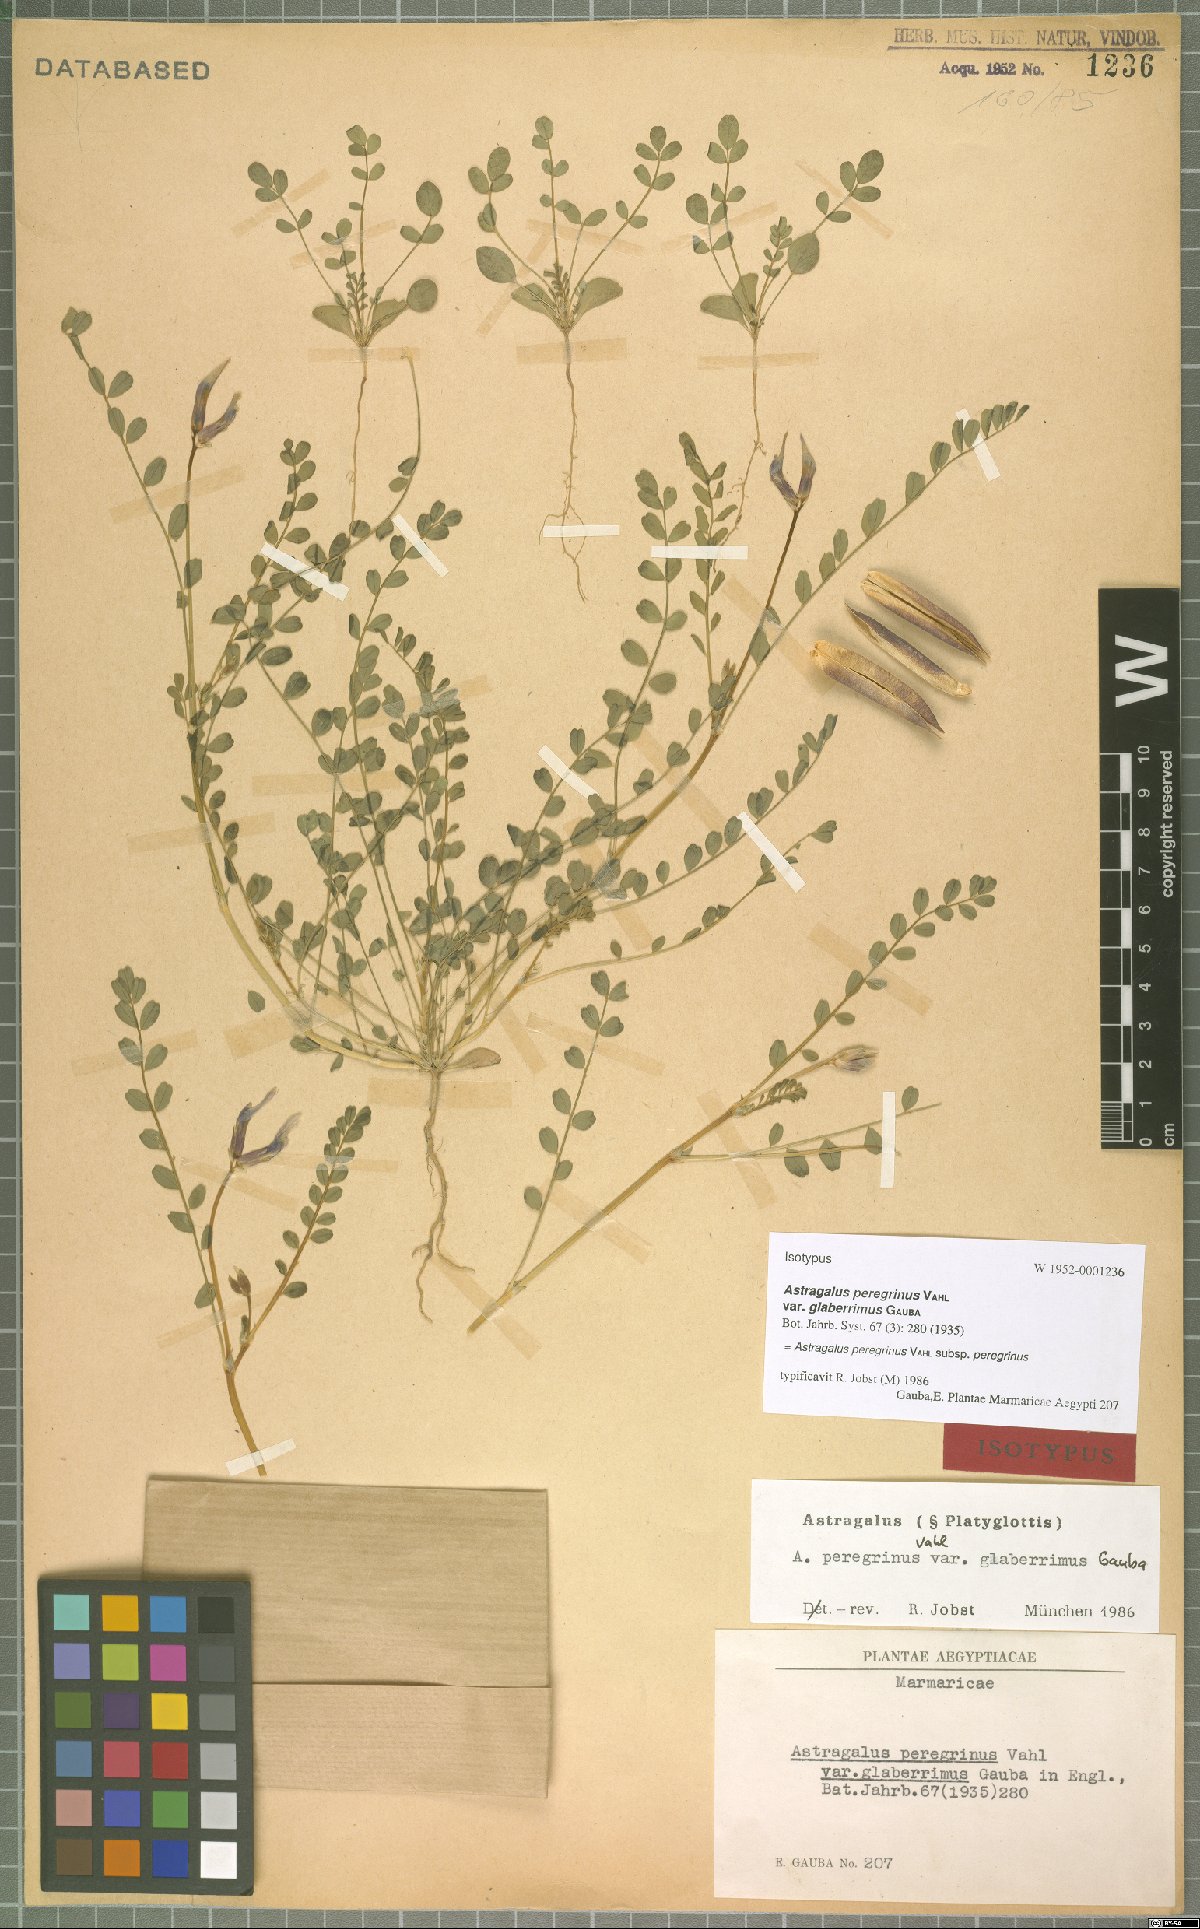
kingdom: Plantae
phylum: Tracheophyta
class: Magnoliopsida
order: Fabales
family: Fabaceae
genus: Astragalus
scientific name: Astragalus peregrinus
